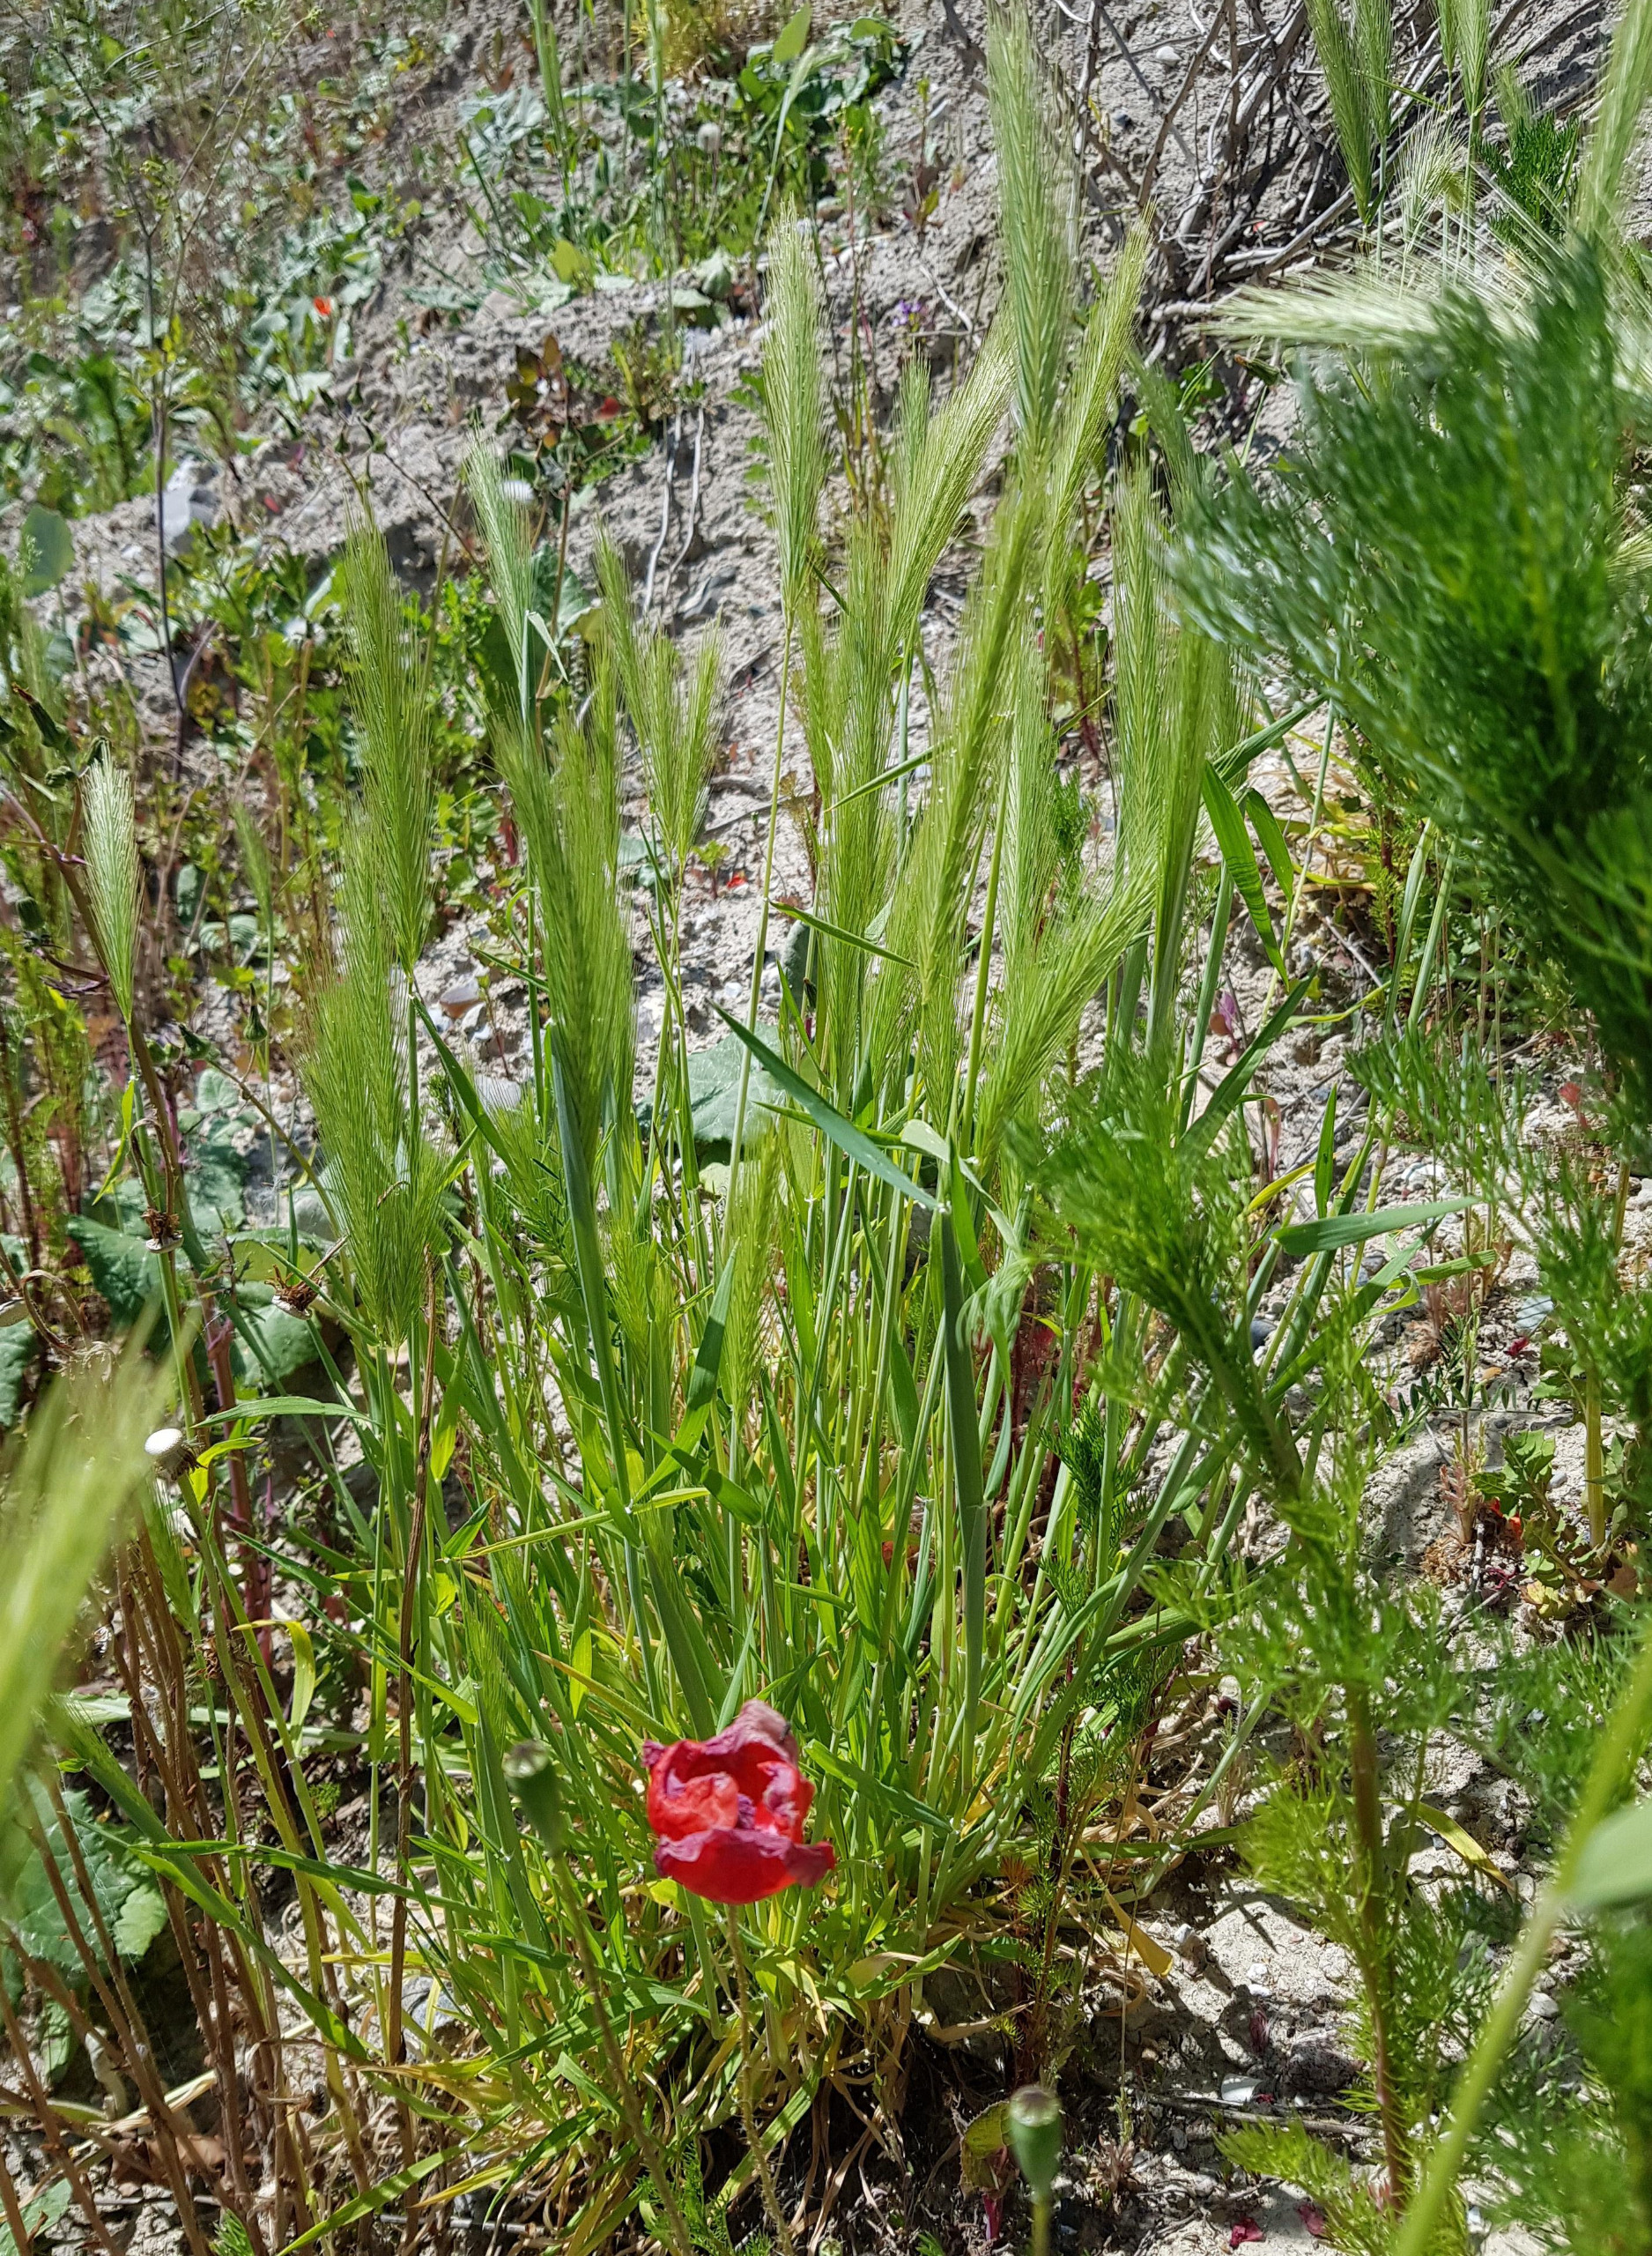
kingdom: Plantae
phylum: Tracheophyta
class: Liliopsida
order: Poales
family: Poaceae
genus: Hordeum
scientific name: Hordeum vulgare
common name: Almindelig byg
